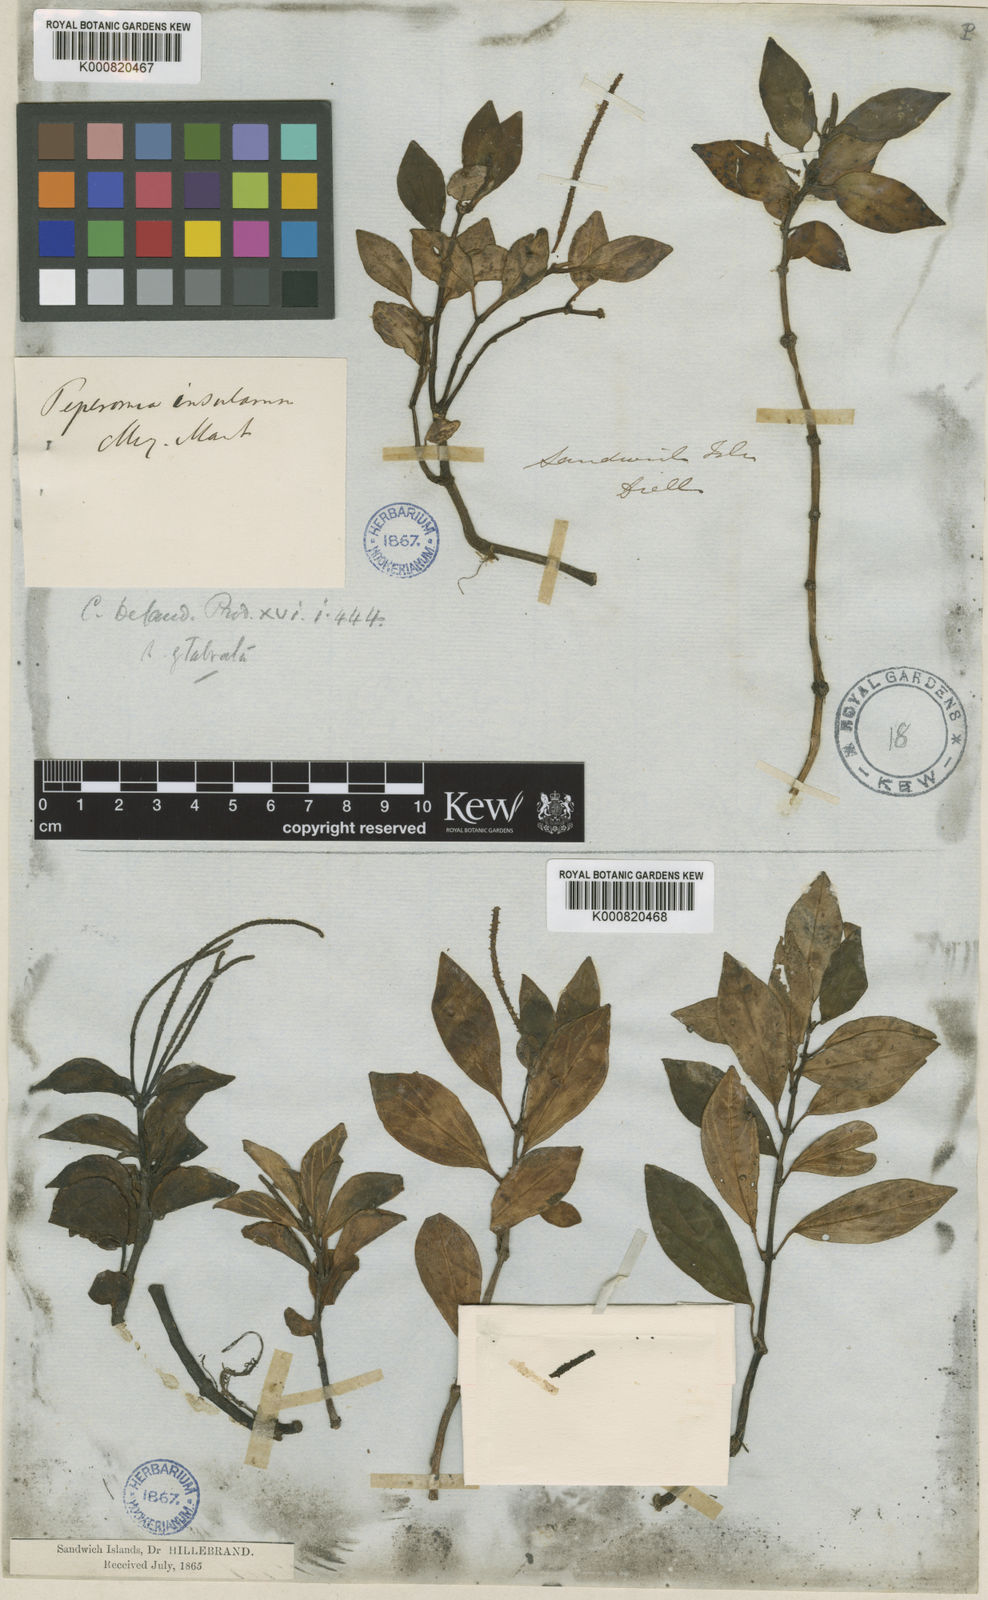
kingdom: Plantae
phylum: Tracheophyta
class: Magnoliopsida
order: Piperales
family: Piperaceae
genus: Peperomia
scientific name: Peperomia leptostachya
